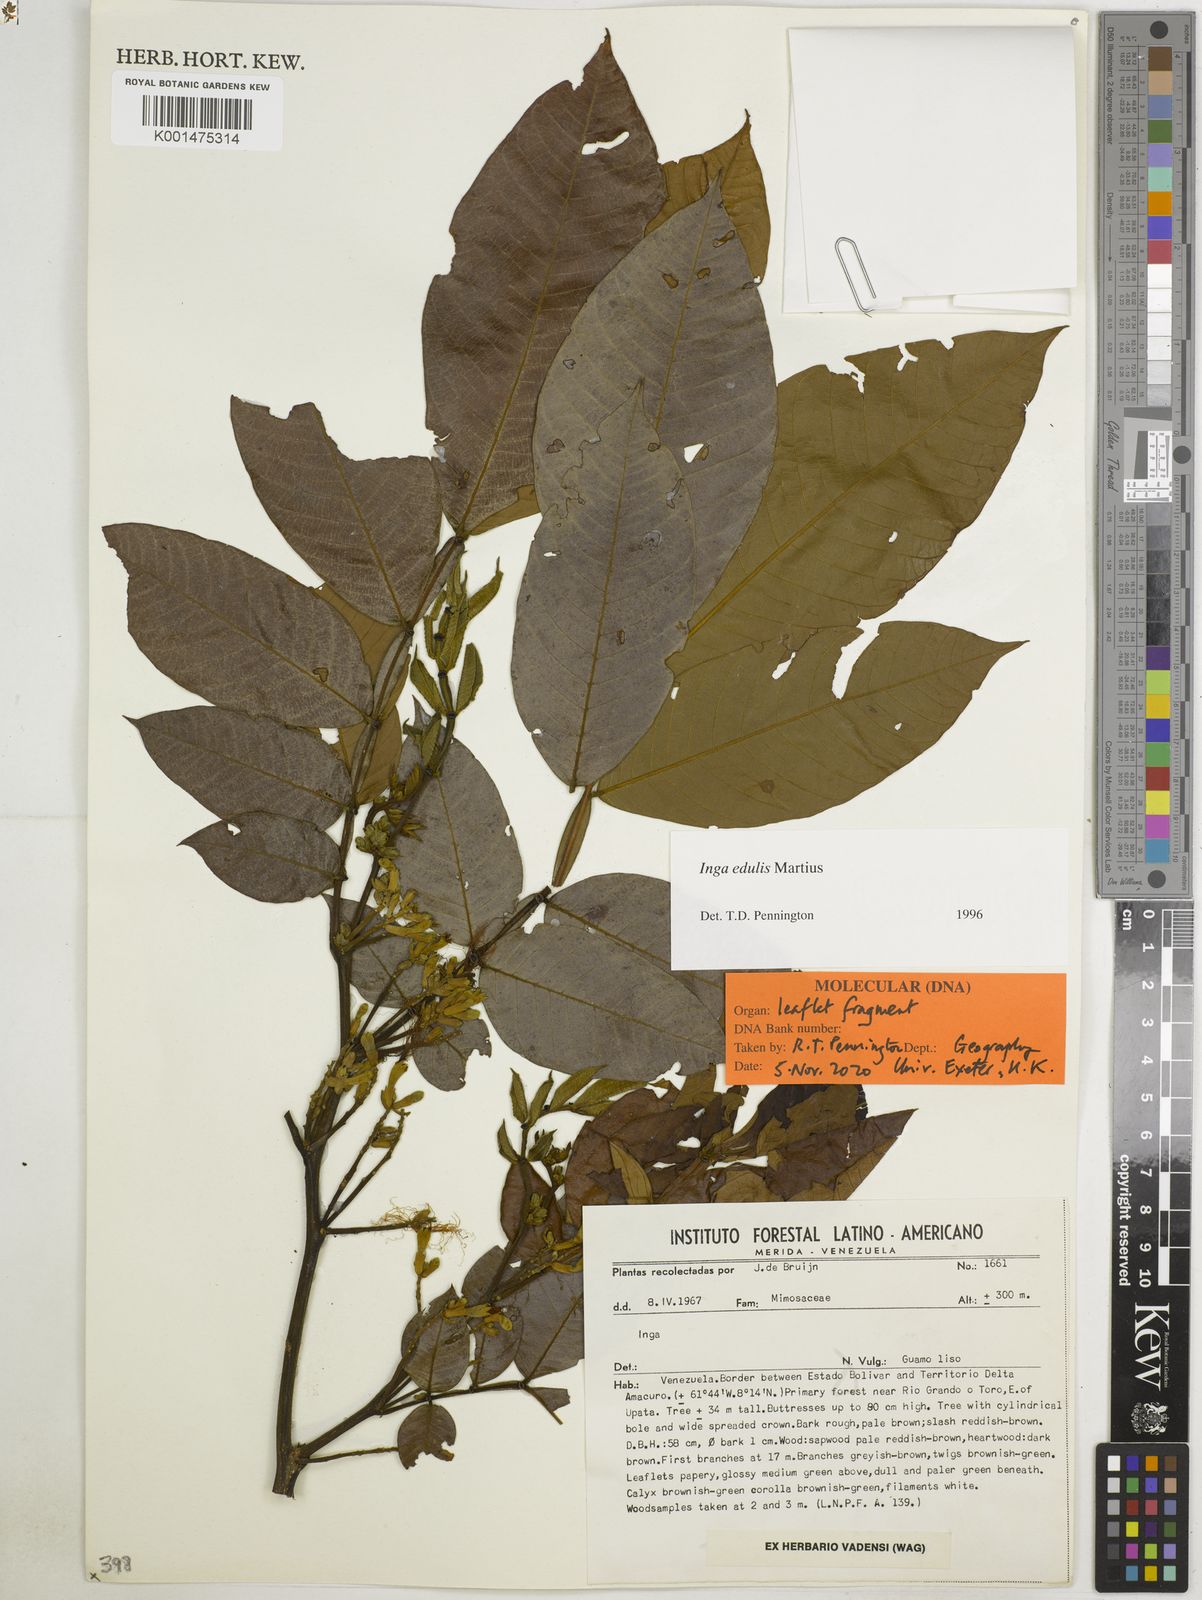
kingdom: Plantae
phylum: Tracheophyta
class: Magnoliopsida
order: Fabales
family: Fabaceae
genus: Inga
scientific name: Inga edulis
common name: Ice cream bean
